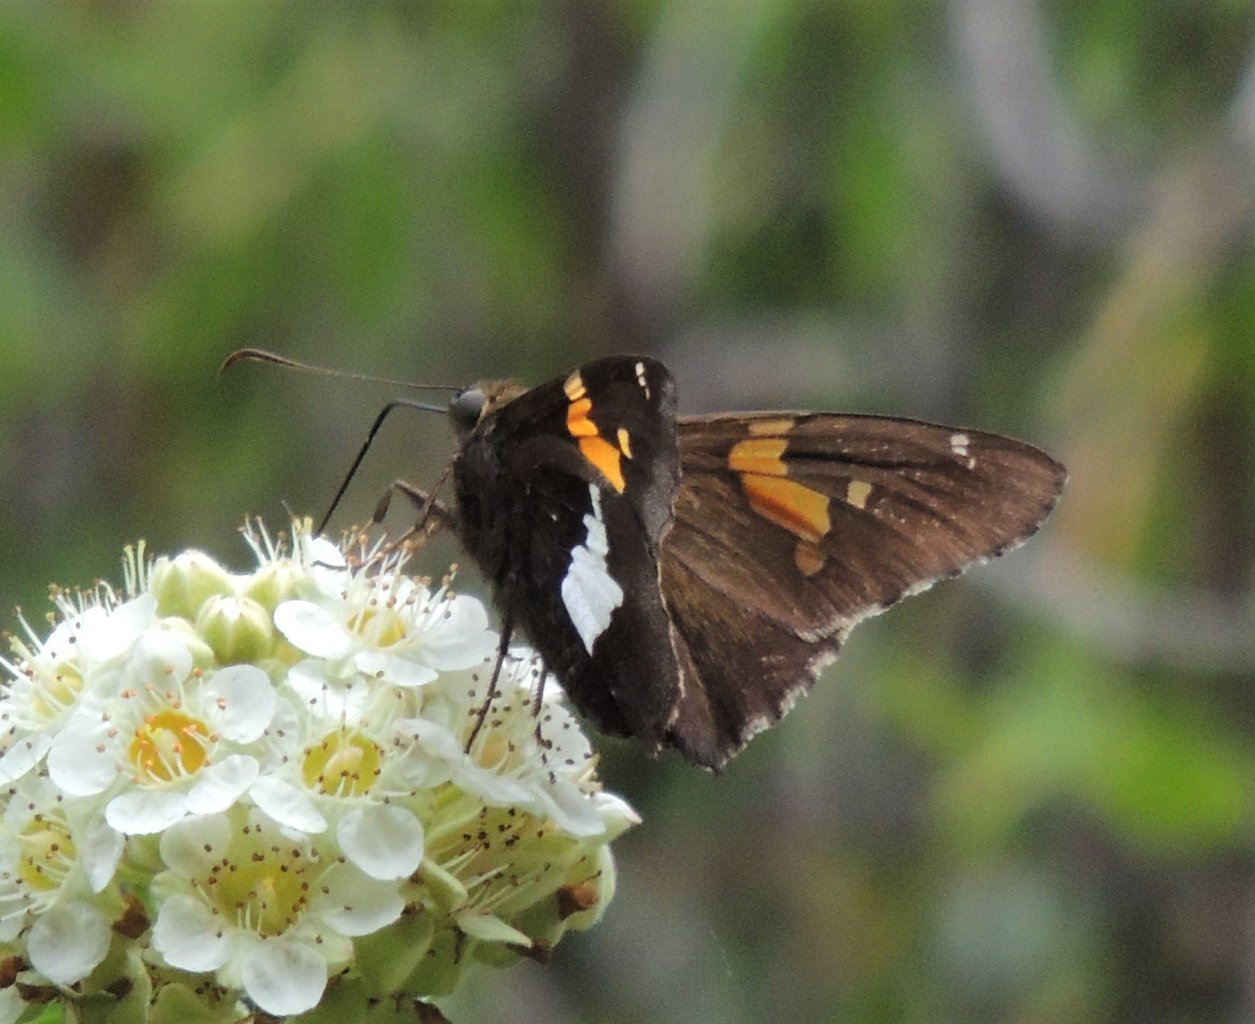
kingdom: Animalia
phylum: Arthropoda
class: Insecta
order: Lepidoptera
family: Hesperiidae
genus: Epargyreus
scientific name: Epargyreus clarus
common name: Silver-spotted Skipper
